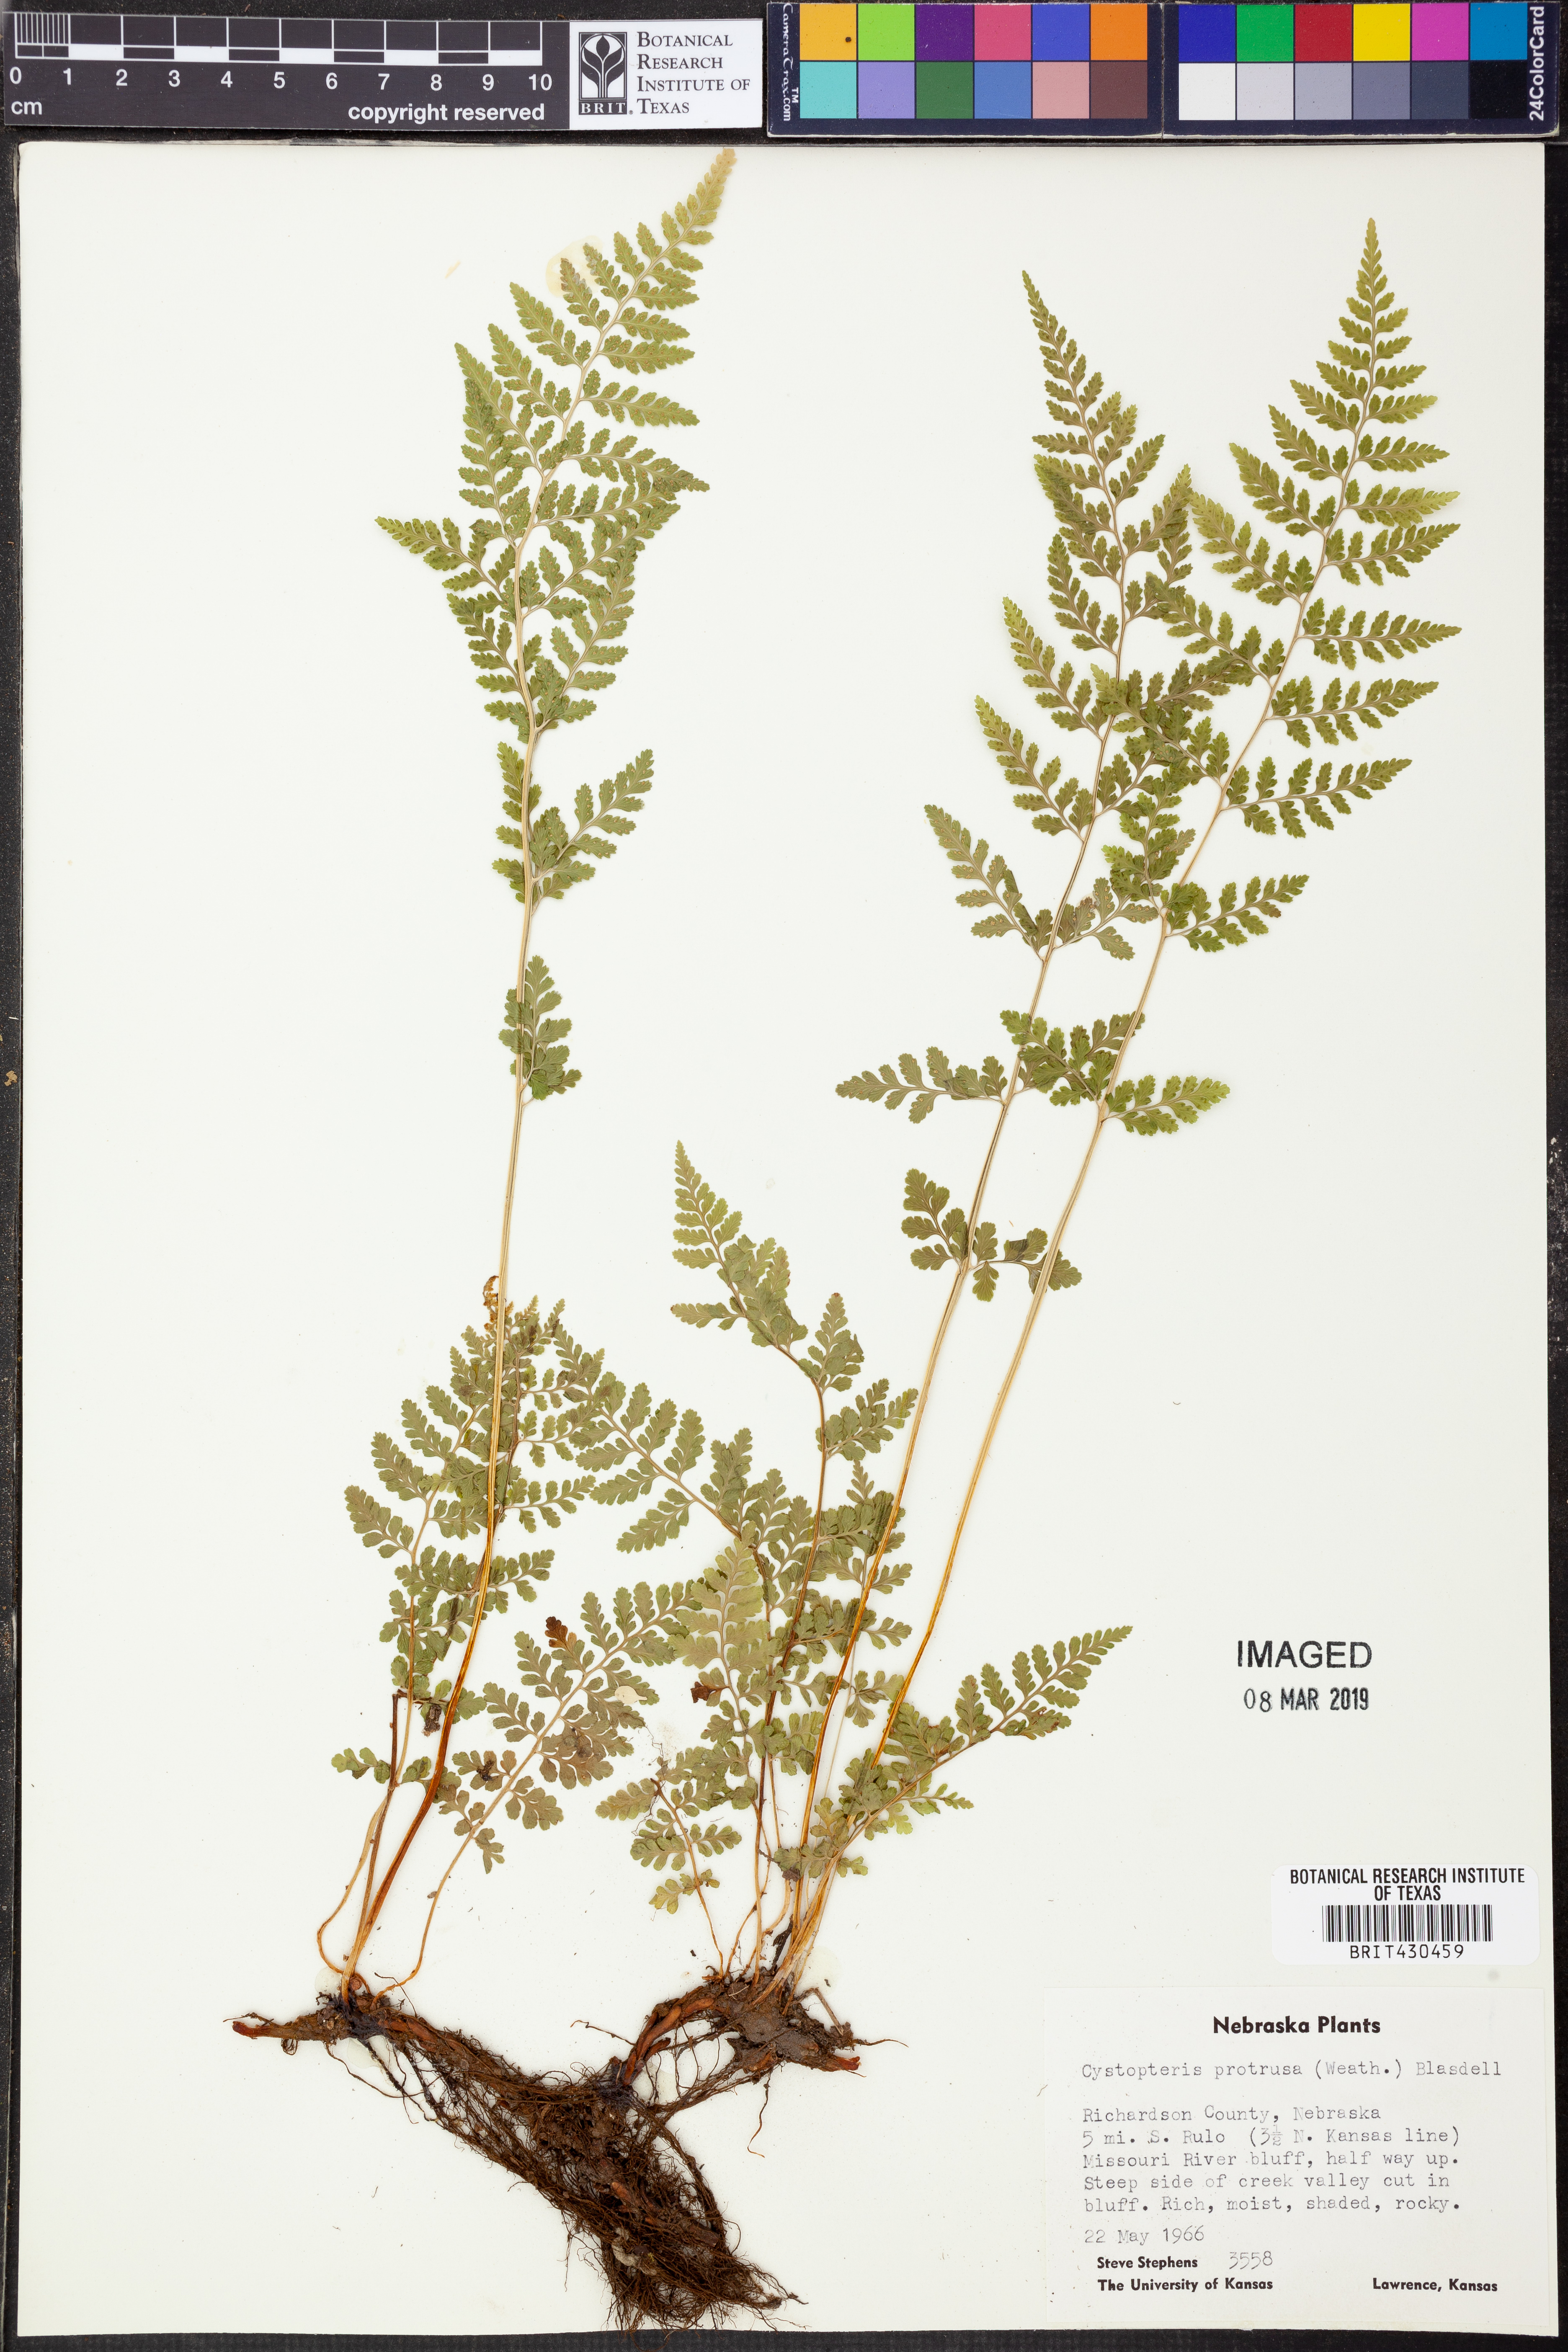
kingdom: Plantae
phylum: Tracheophyta
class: Polypodiopsida
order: Polypodiales
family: Cystopteridaceae
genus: Cystopteris
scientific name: Cystopteris protrusa
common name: Lowland brittle fern
